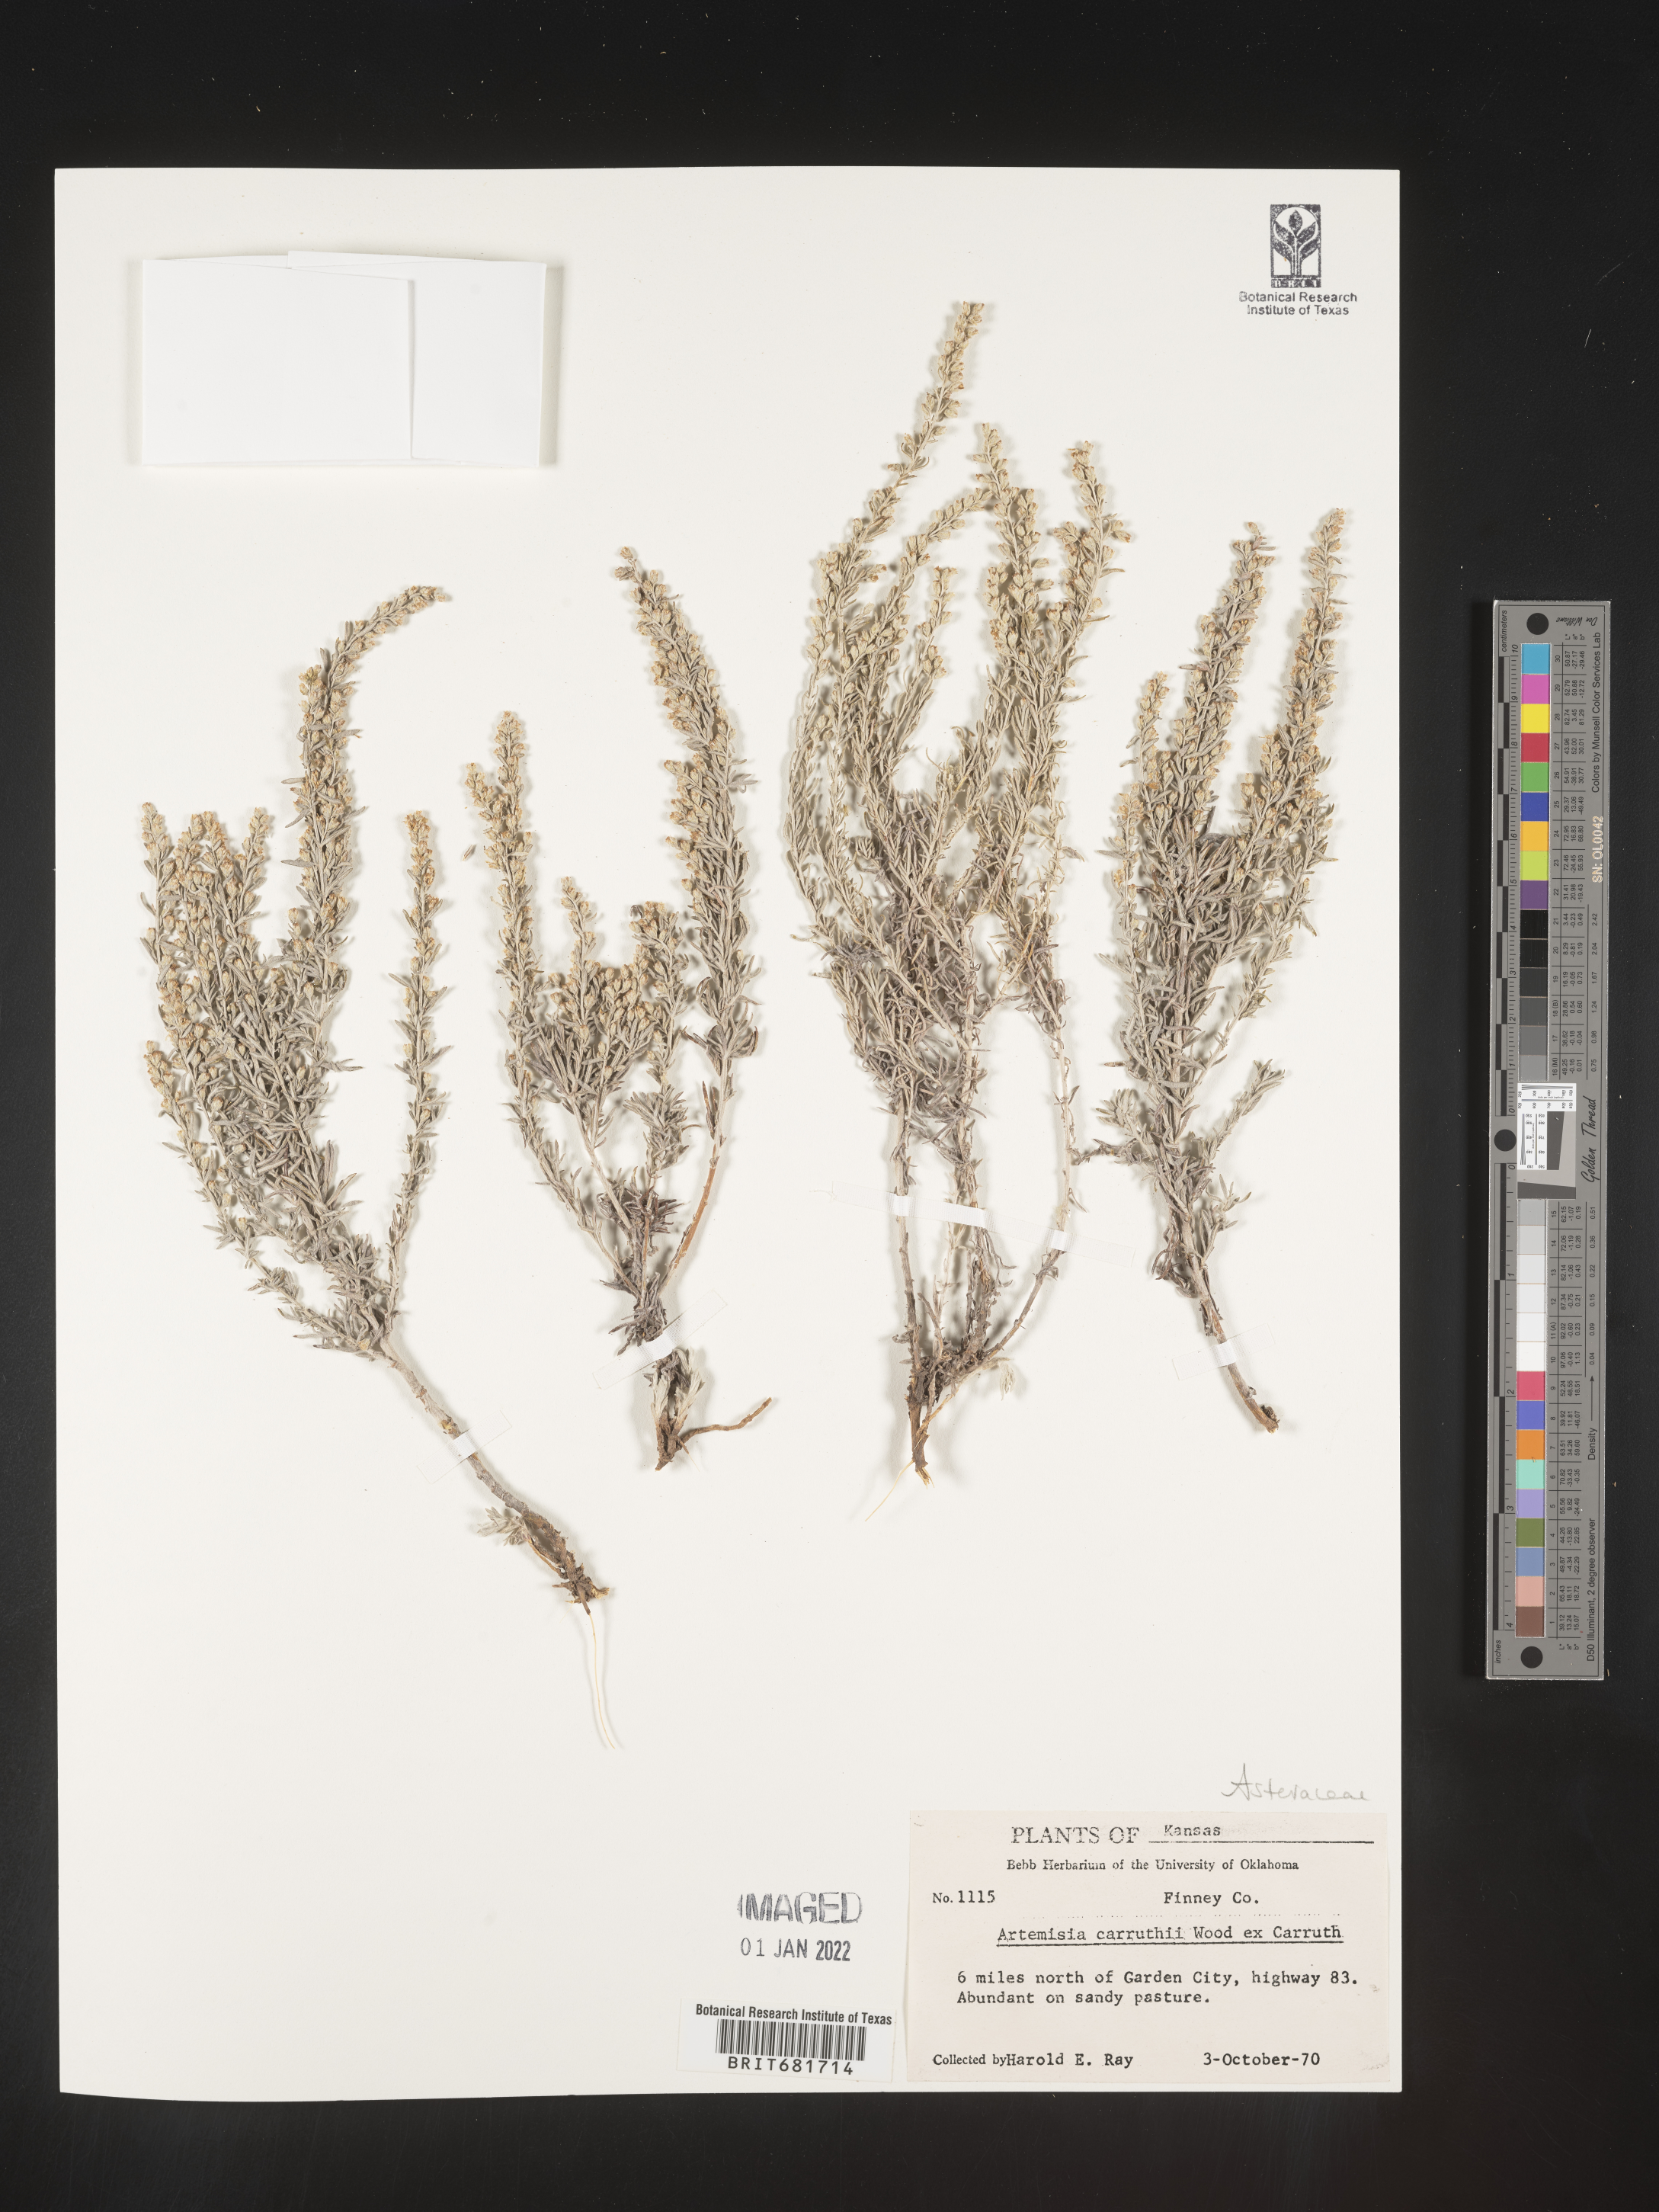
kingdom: Plantae
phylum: Tracheophyta
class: Magnoliopsida
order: Asterales
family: Asteraceae
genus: Artemisia
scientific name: Artemisia carruthii
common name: Carruth wormwood
